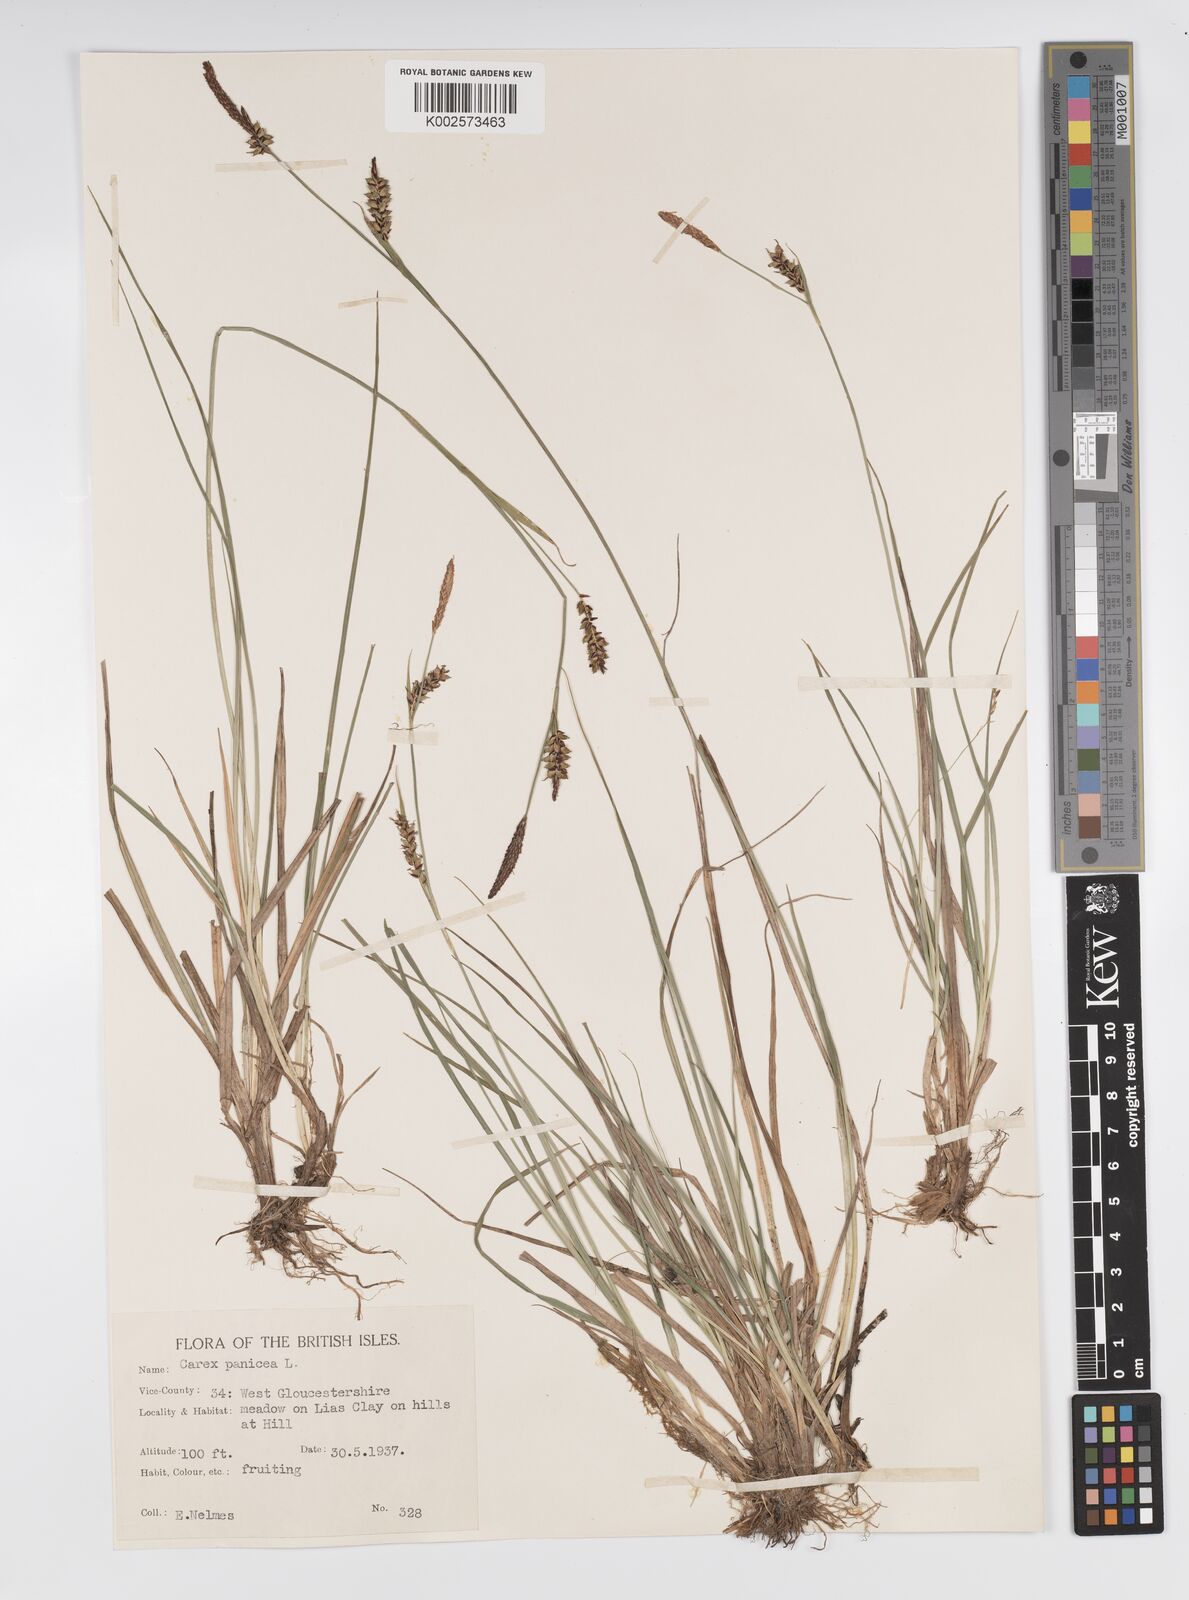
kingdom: Plantae
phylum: Tracheophyta
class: Liliopsida
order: Poales
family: Cyperaceae
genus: Carex
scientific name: Carex panicea
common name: Carnation sedge
